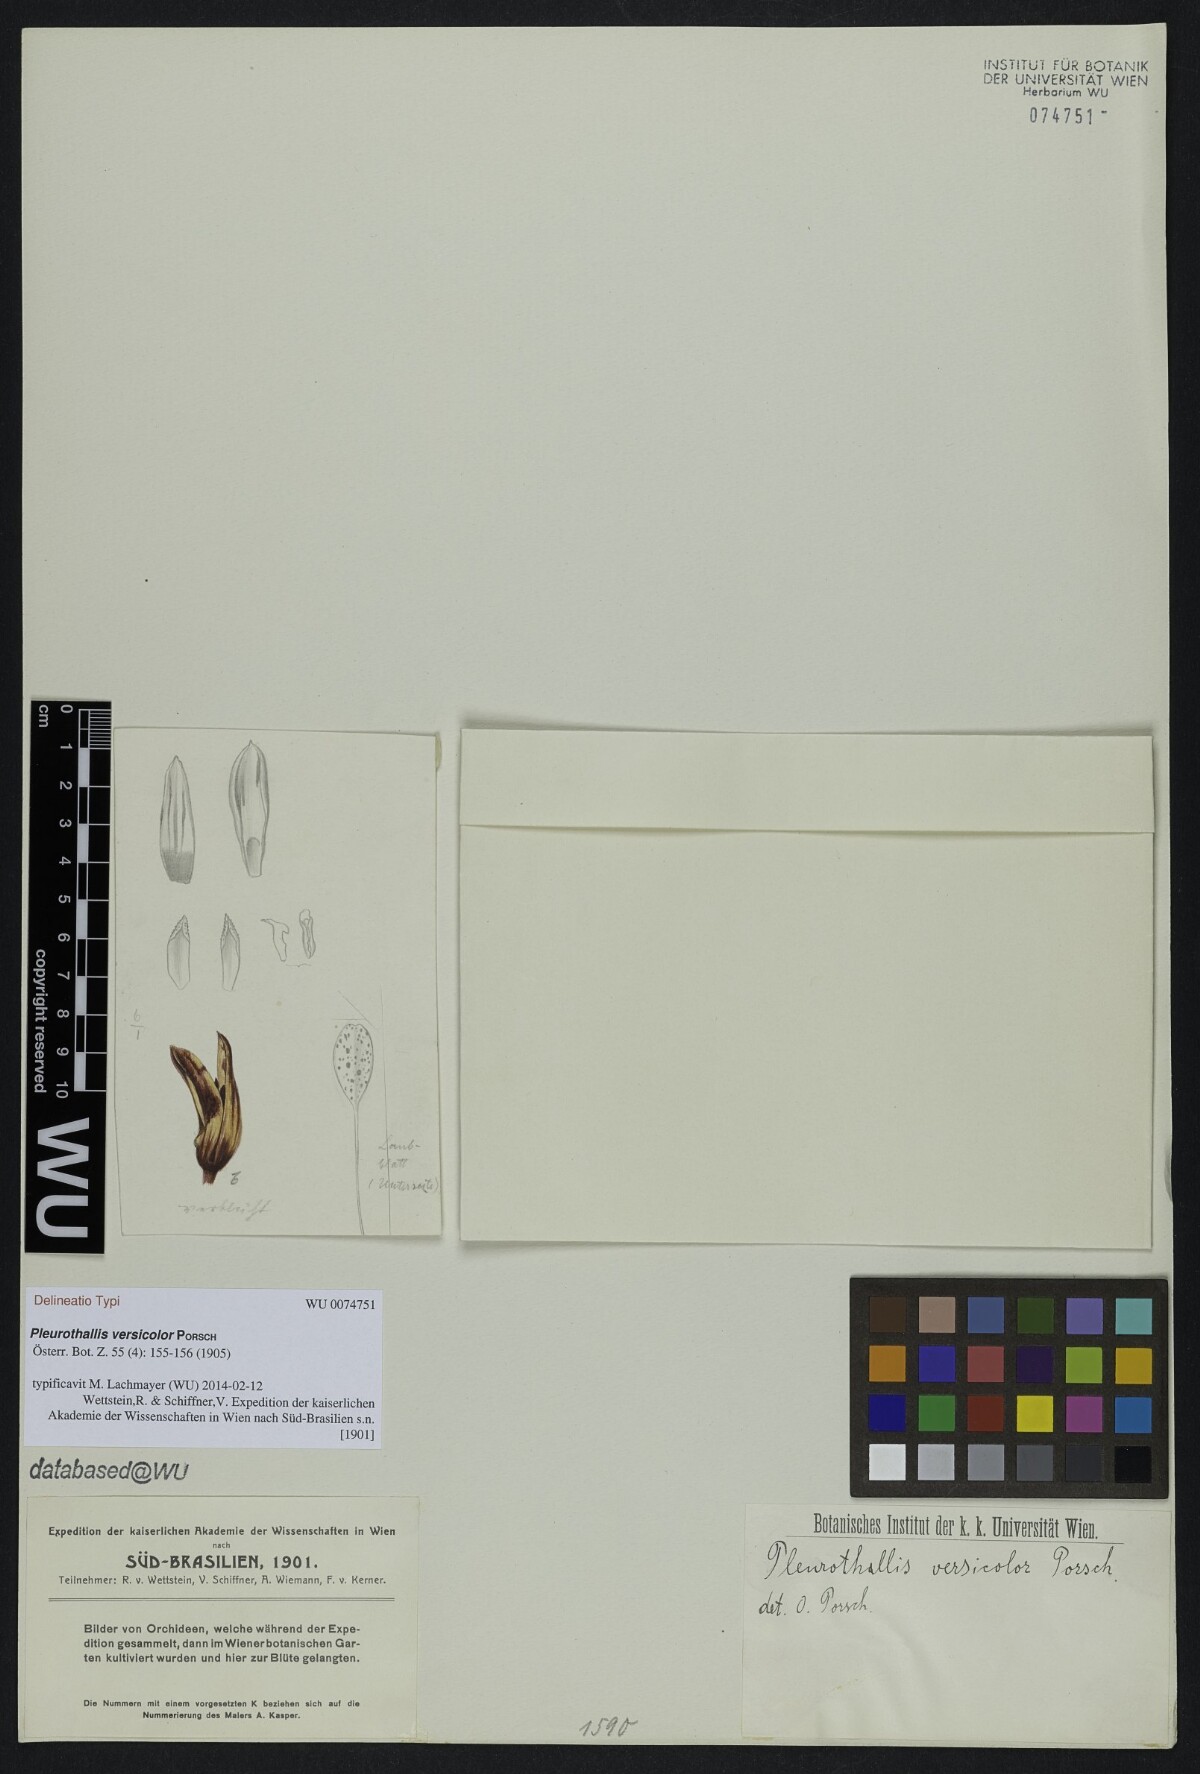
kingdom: Plantae
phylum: Tracheophyta
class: Liliopsida
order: Asparagales
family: Orchidaceae
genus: Pabstiella
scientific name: Pabstiella versicolor
